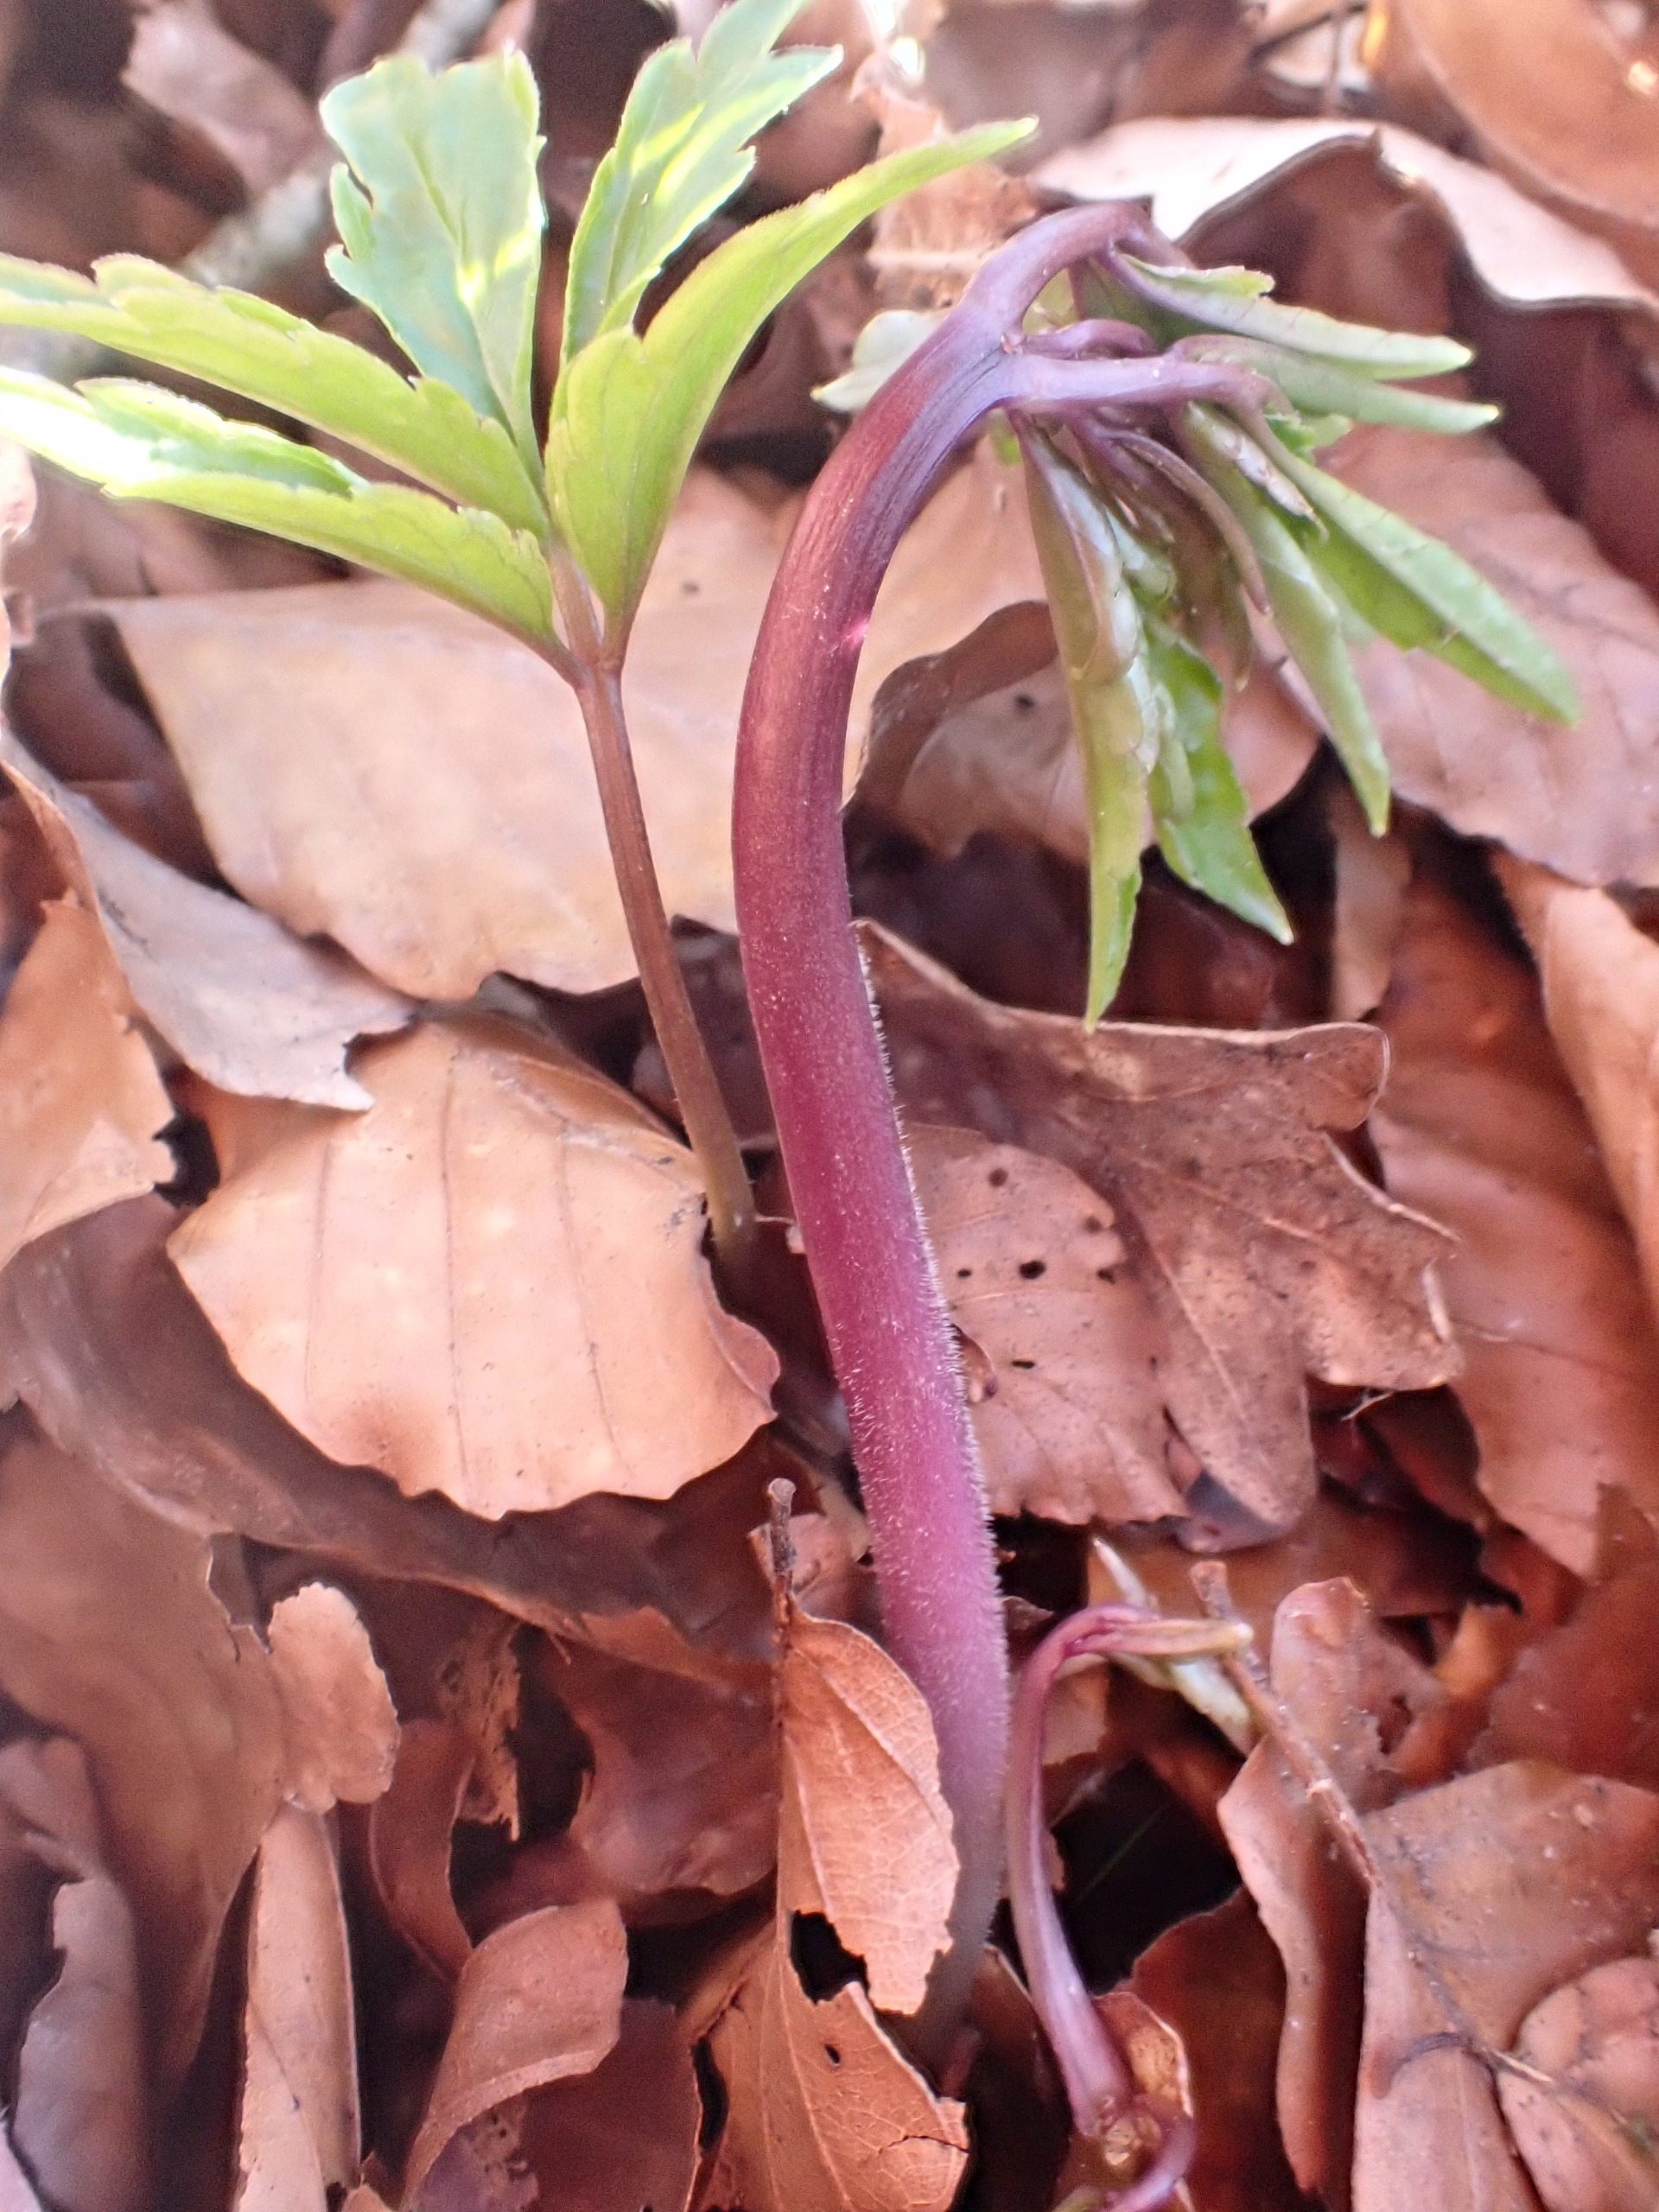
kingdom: Plantae
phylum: Tracheophyta
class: Magnoliopsida
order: Brassicales
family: Brassicaceae
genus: Cardamine
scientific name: Cardamine bulbifera
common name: Tandrod
